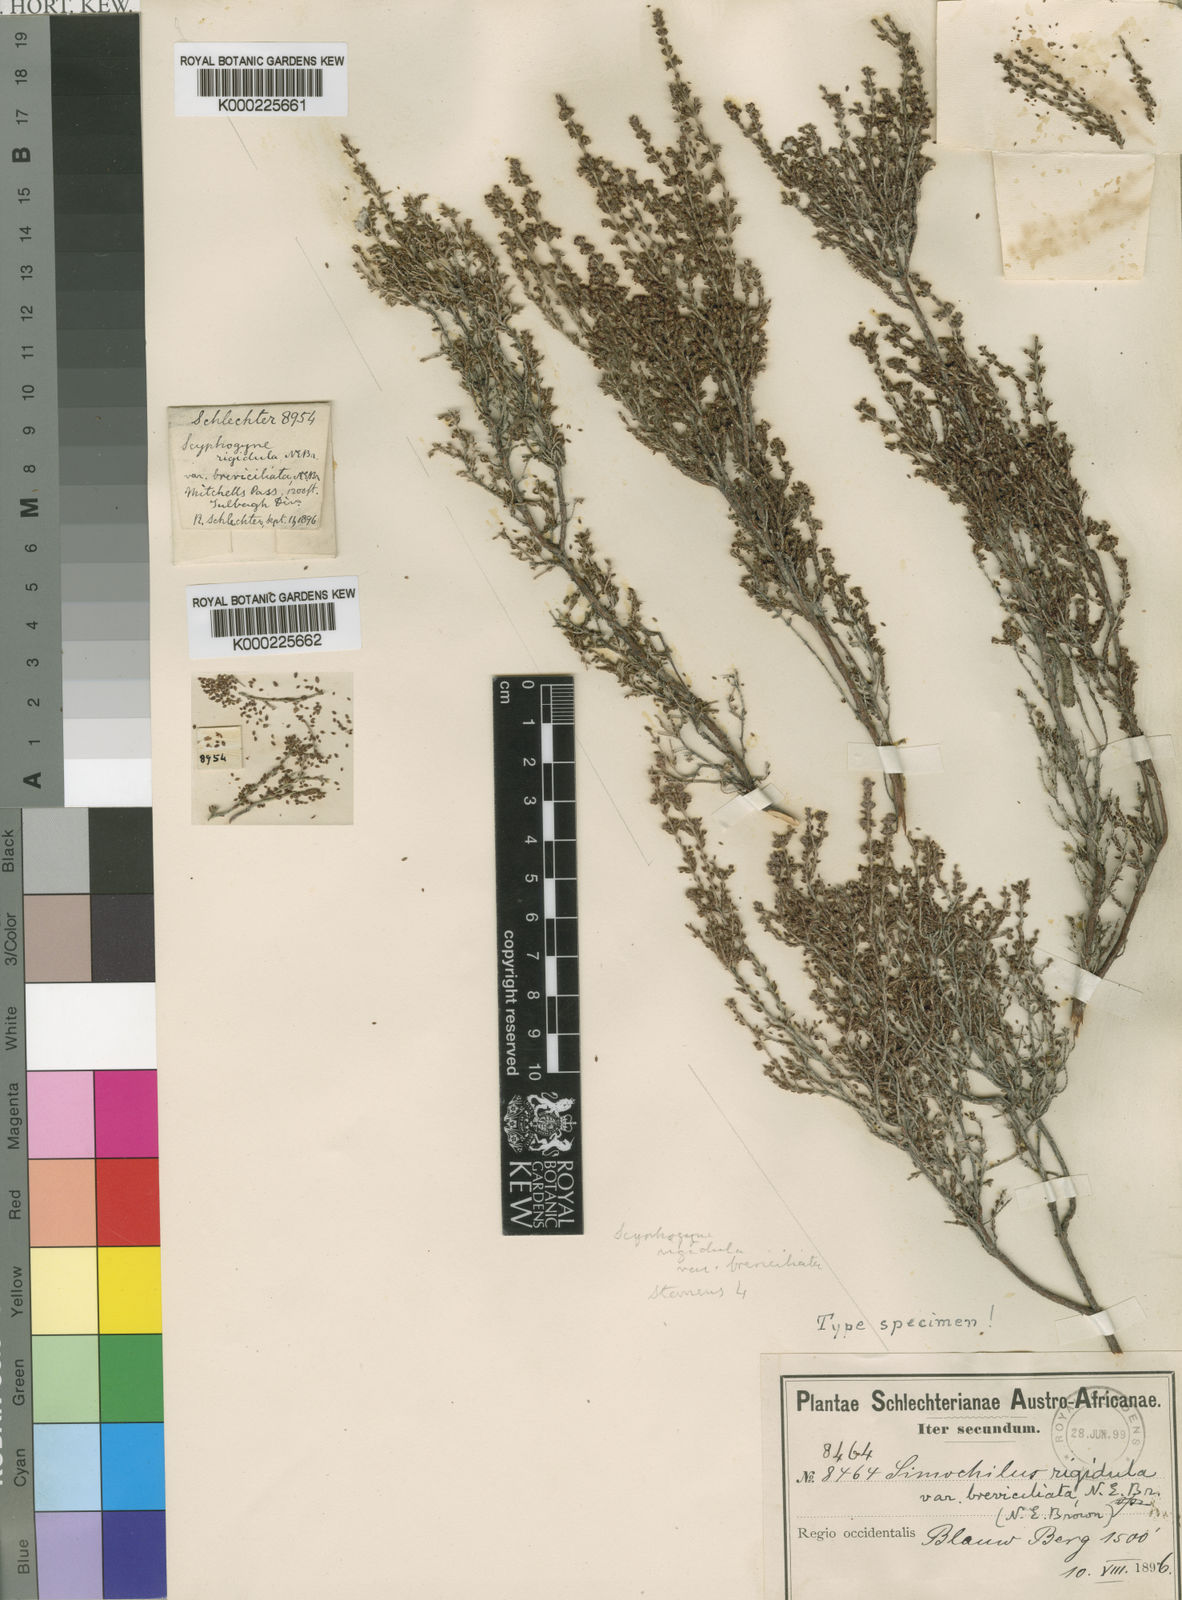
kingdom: Plantae
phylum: Tracheophyta
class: Magnoliopsida
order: Ericales
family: Ericaceae
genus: Erica
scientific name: Erica rigidula
